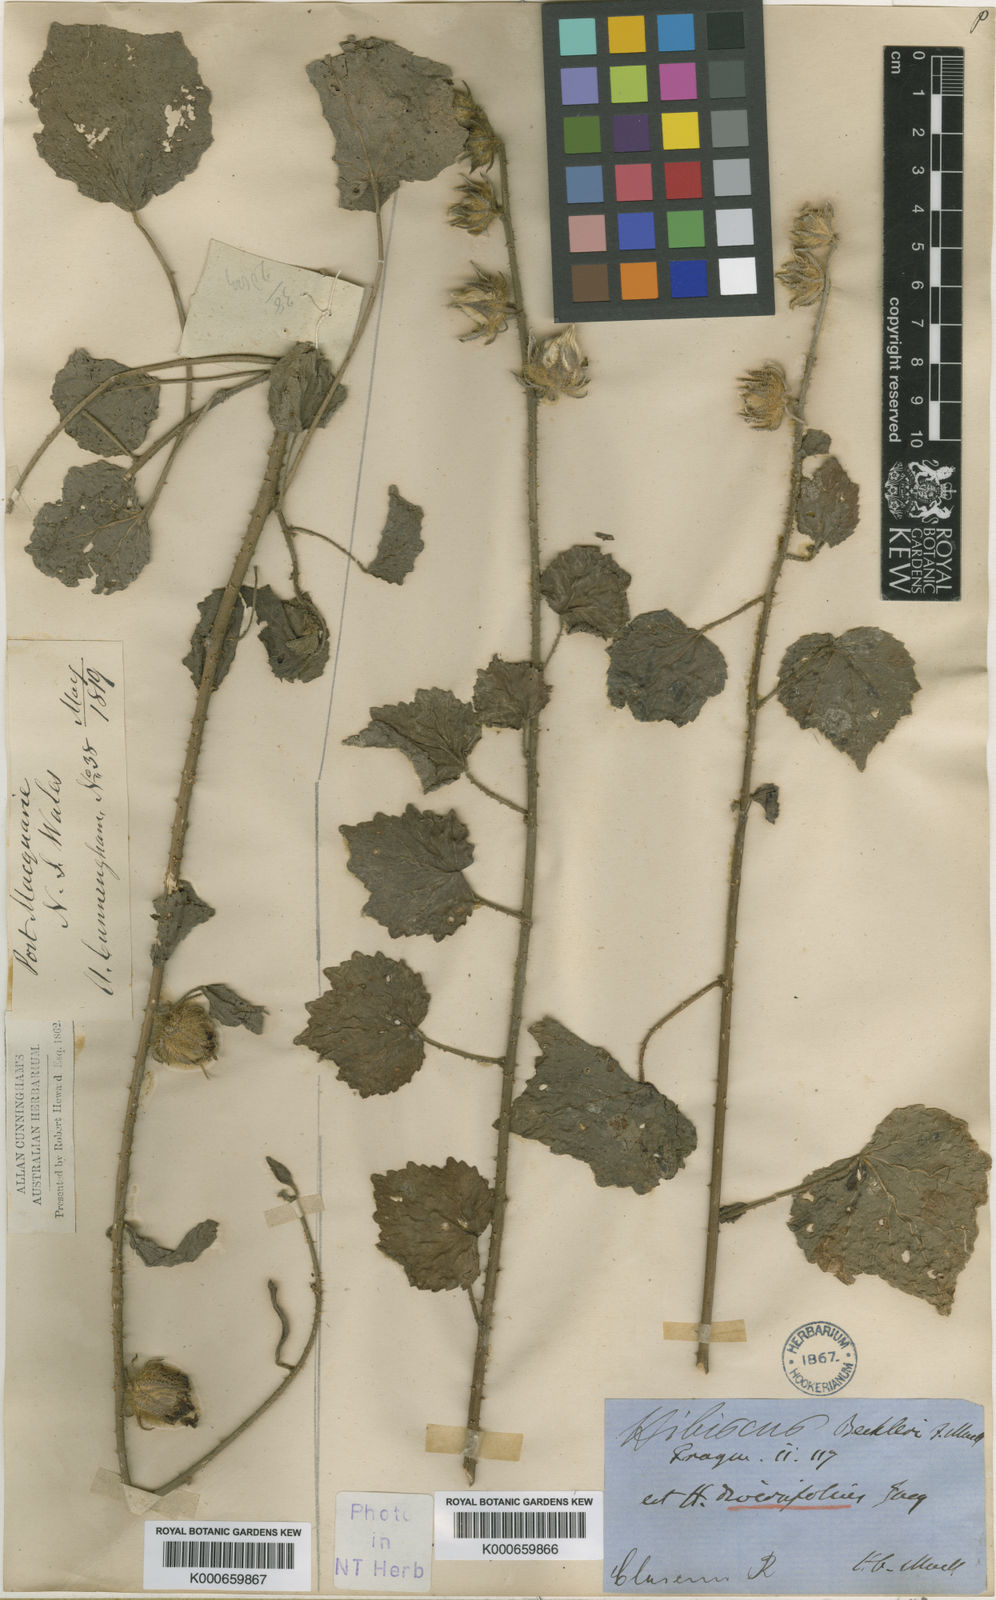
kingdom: Plantae
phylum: Tracheophyta
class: Magnoliopsida
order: Malvales
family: Malvaceae
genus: Hibiscus
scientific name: Hibiscus diversifolius
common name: Cape hibiscus
